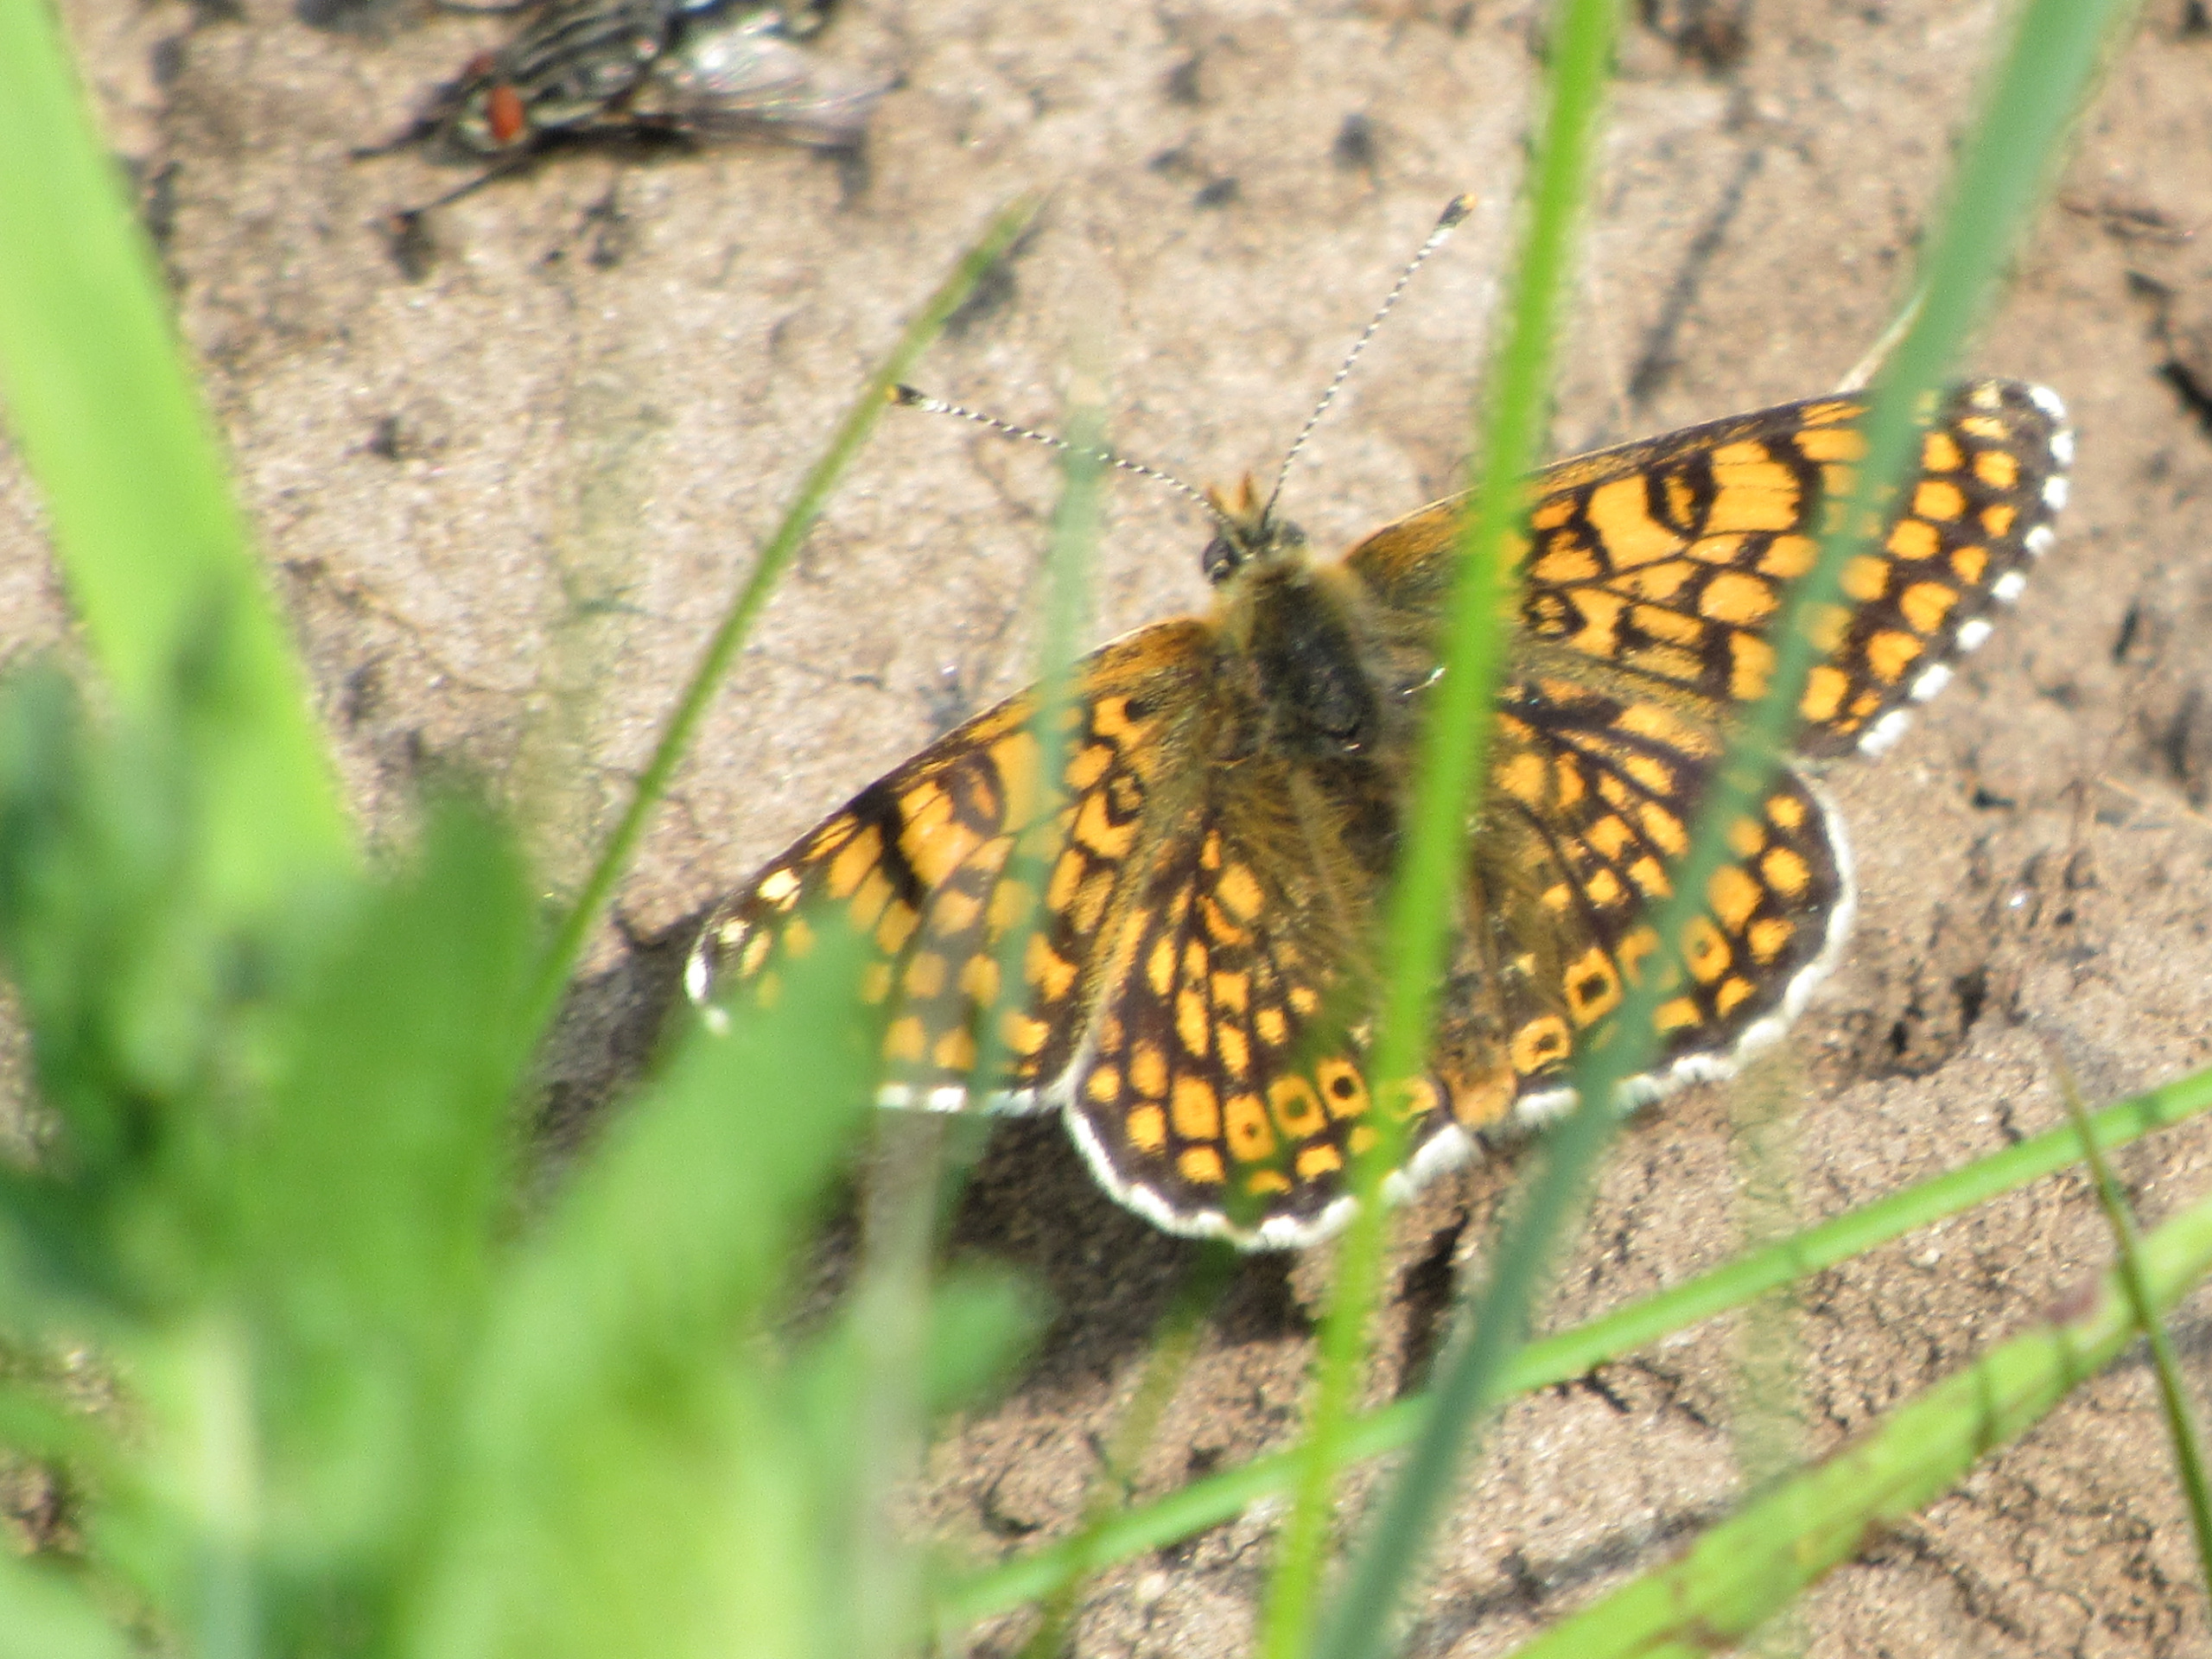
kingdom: Animalia
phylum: Arthropoda
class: Insecta
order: Lepidoptera
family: Nymphalidae
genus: Melitaea
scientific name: Melitaea cinxia
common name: Okkergul pletvinge
